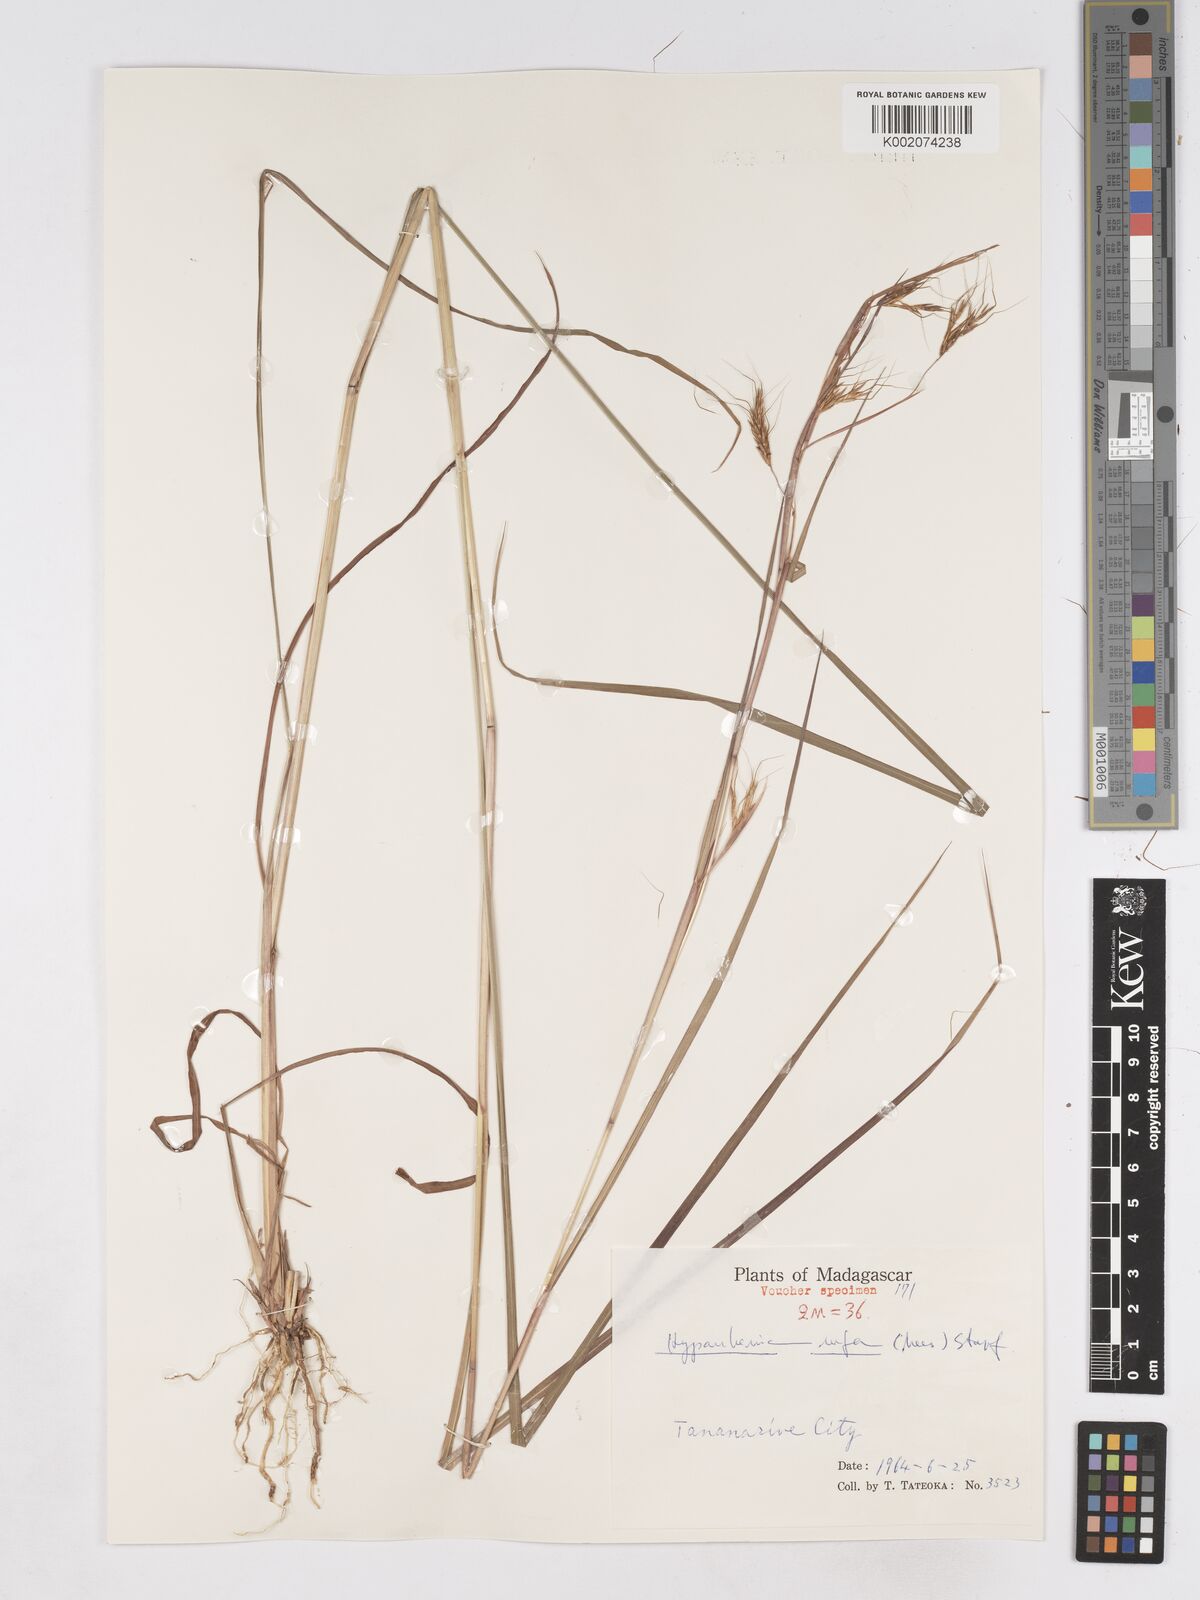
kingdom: Plantae
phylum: Tracheophyta
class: Liliopsida
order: Poales
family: Poaceae
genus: Hyparrhenia
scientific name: Hyparrhenia rufa
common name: Jaraguagrass
